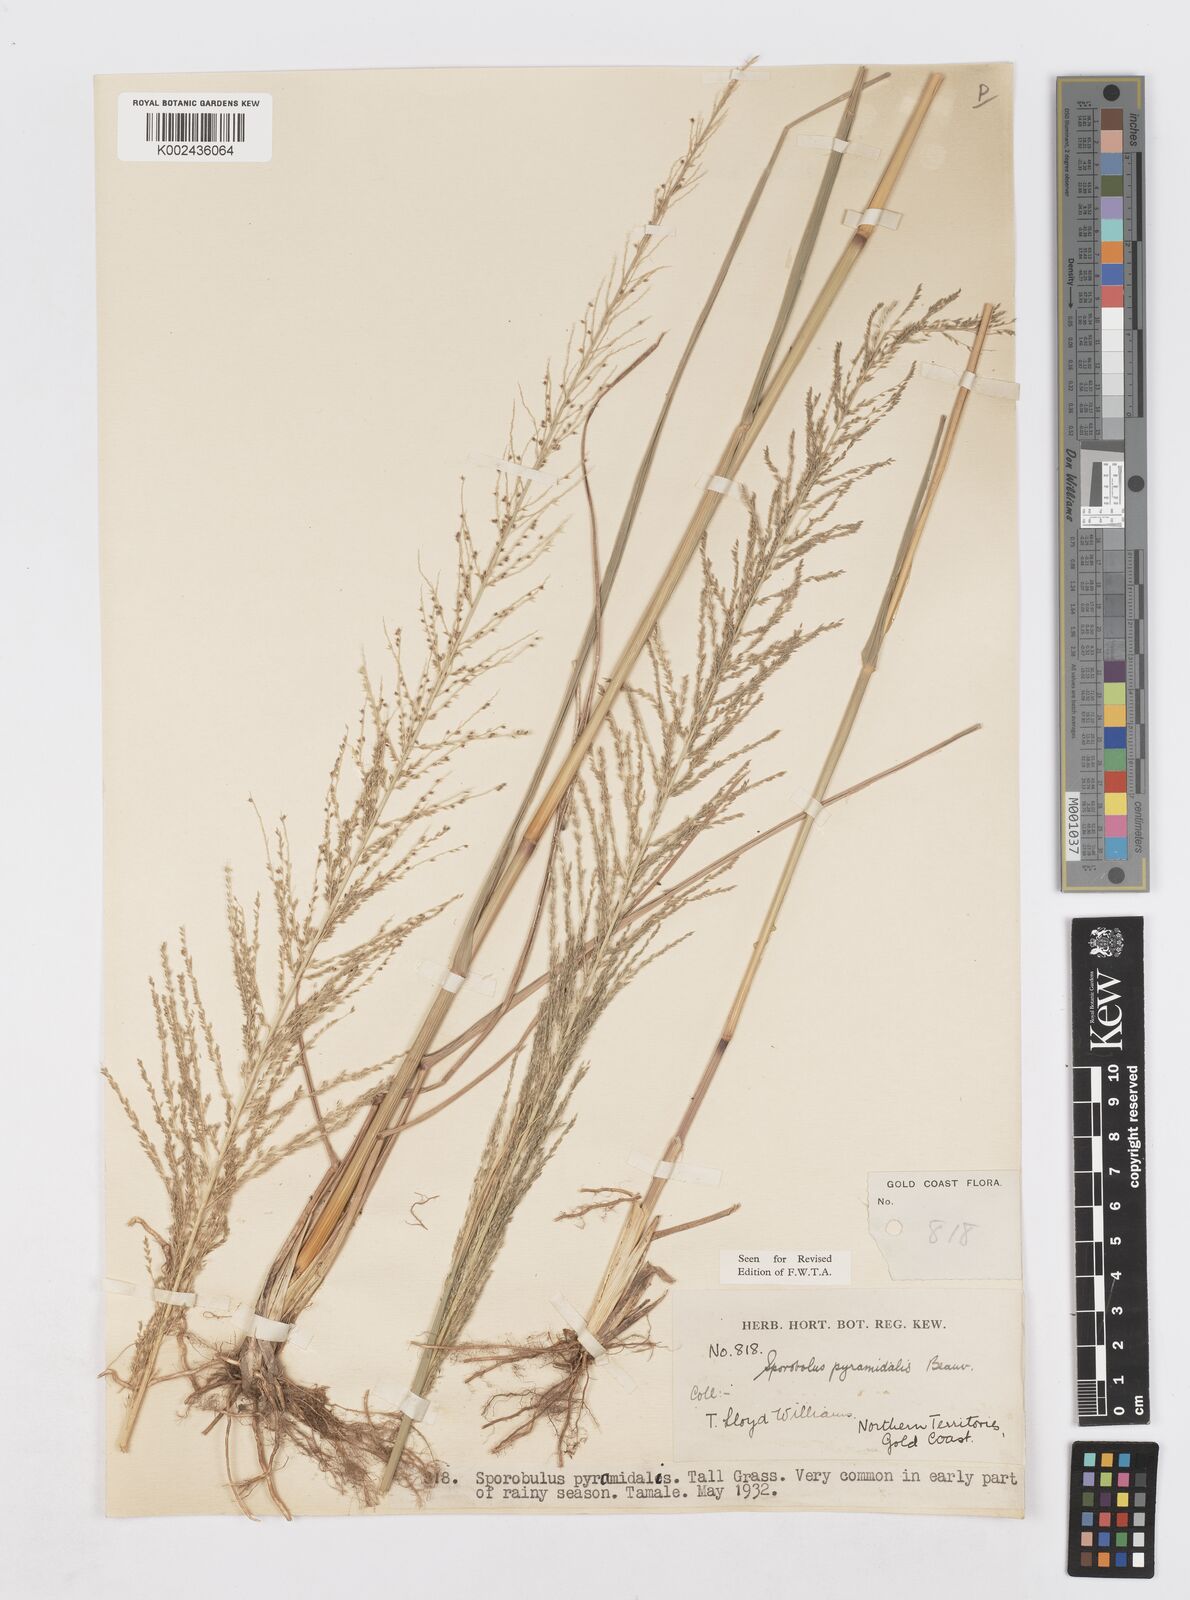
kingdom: Plantae
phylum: Tracheophyta
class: Liliopsida
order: Poales
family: Poaceae
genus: Sporobolus
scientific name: Sporobolus pyramidalis
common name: West indian dropseed
